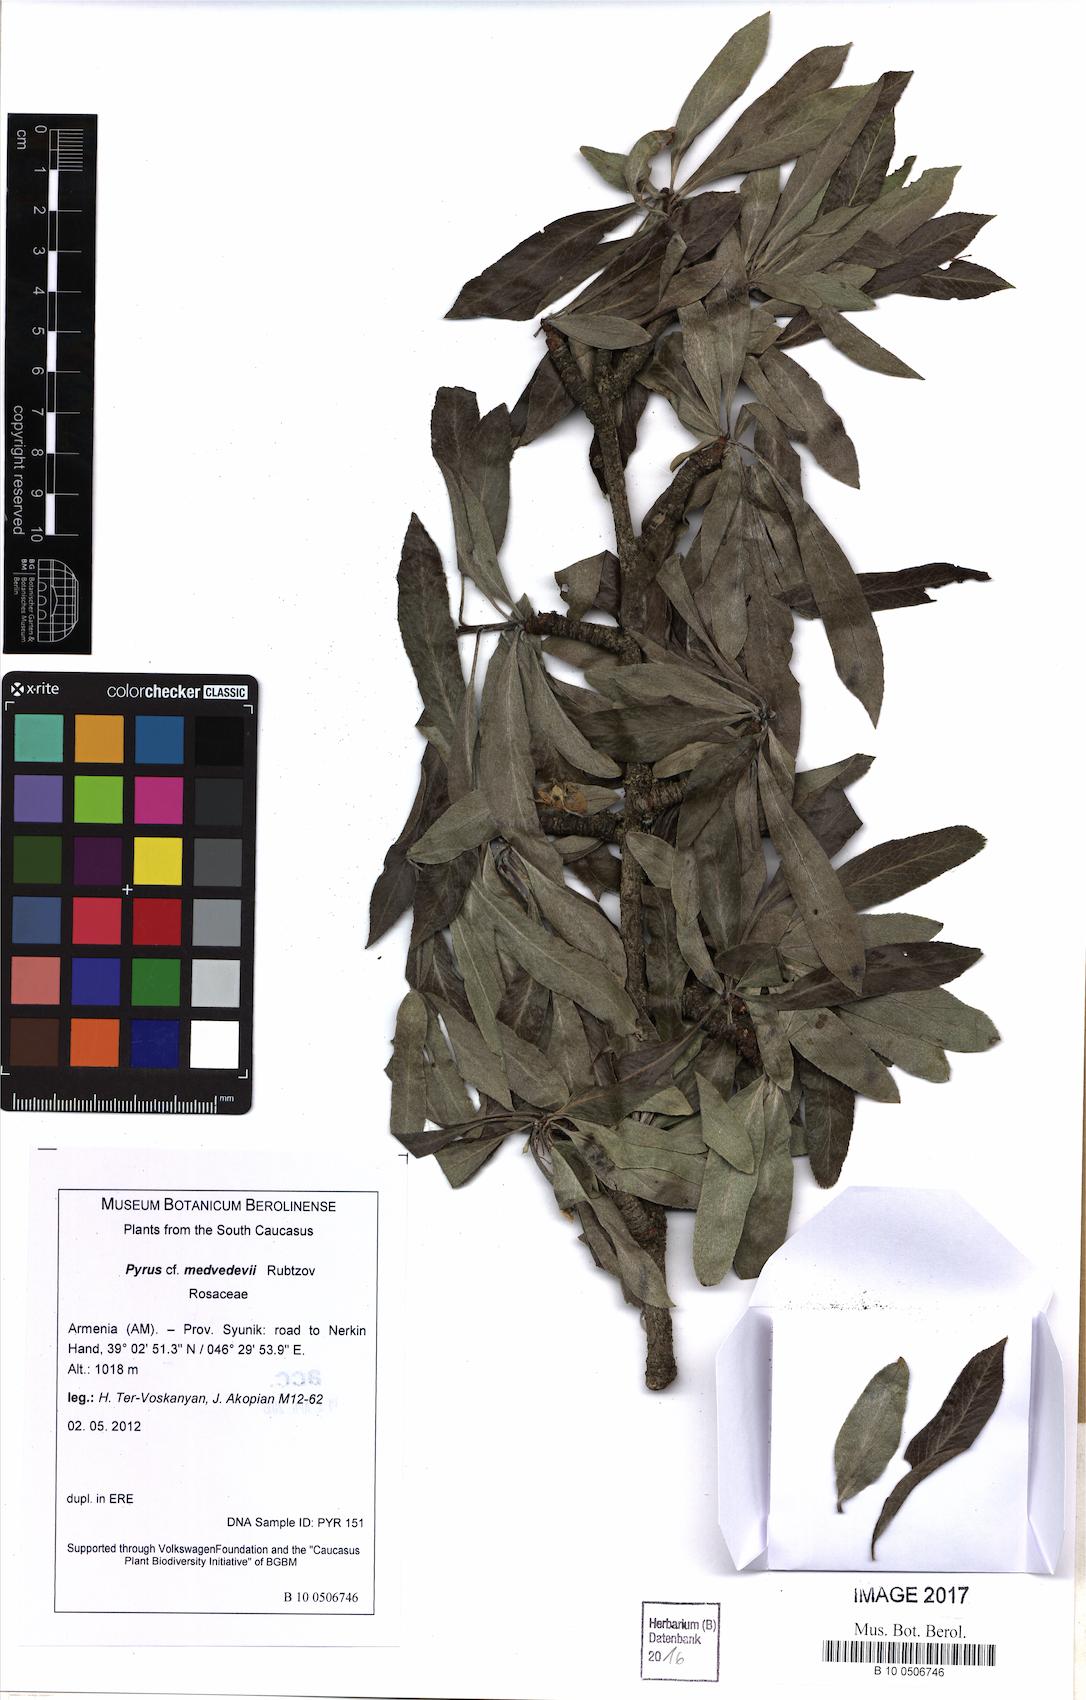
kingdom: Plantae
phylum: Tracheophyta
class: Magnoliopsida
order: Rosales
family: Rosaceae
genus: Pyrus
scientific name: Pyrus medvedevii
